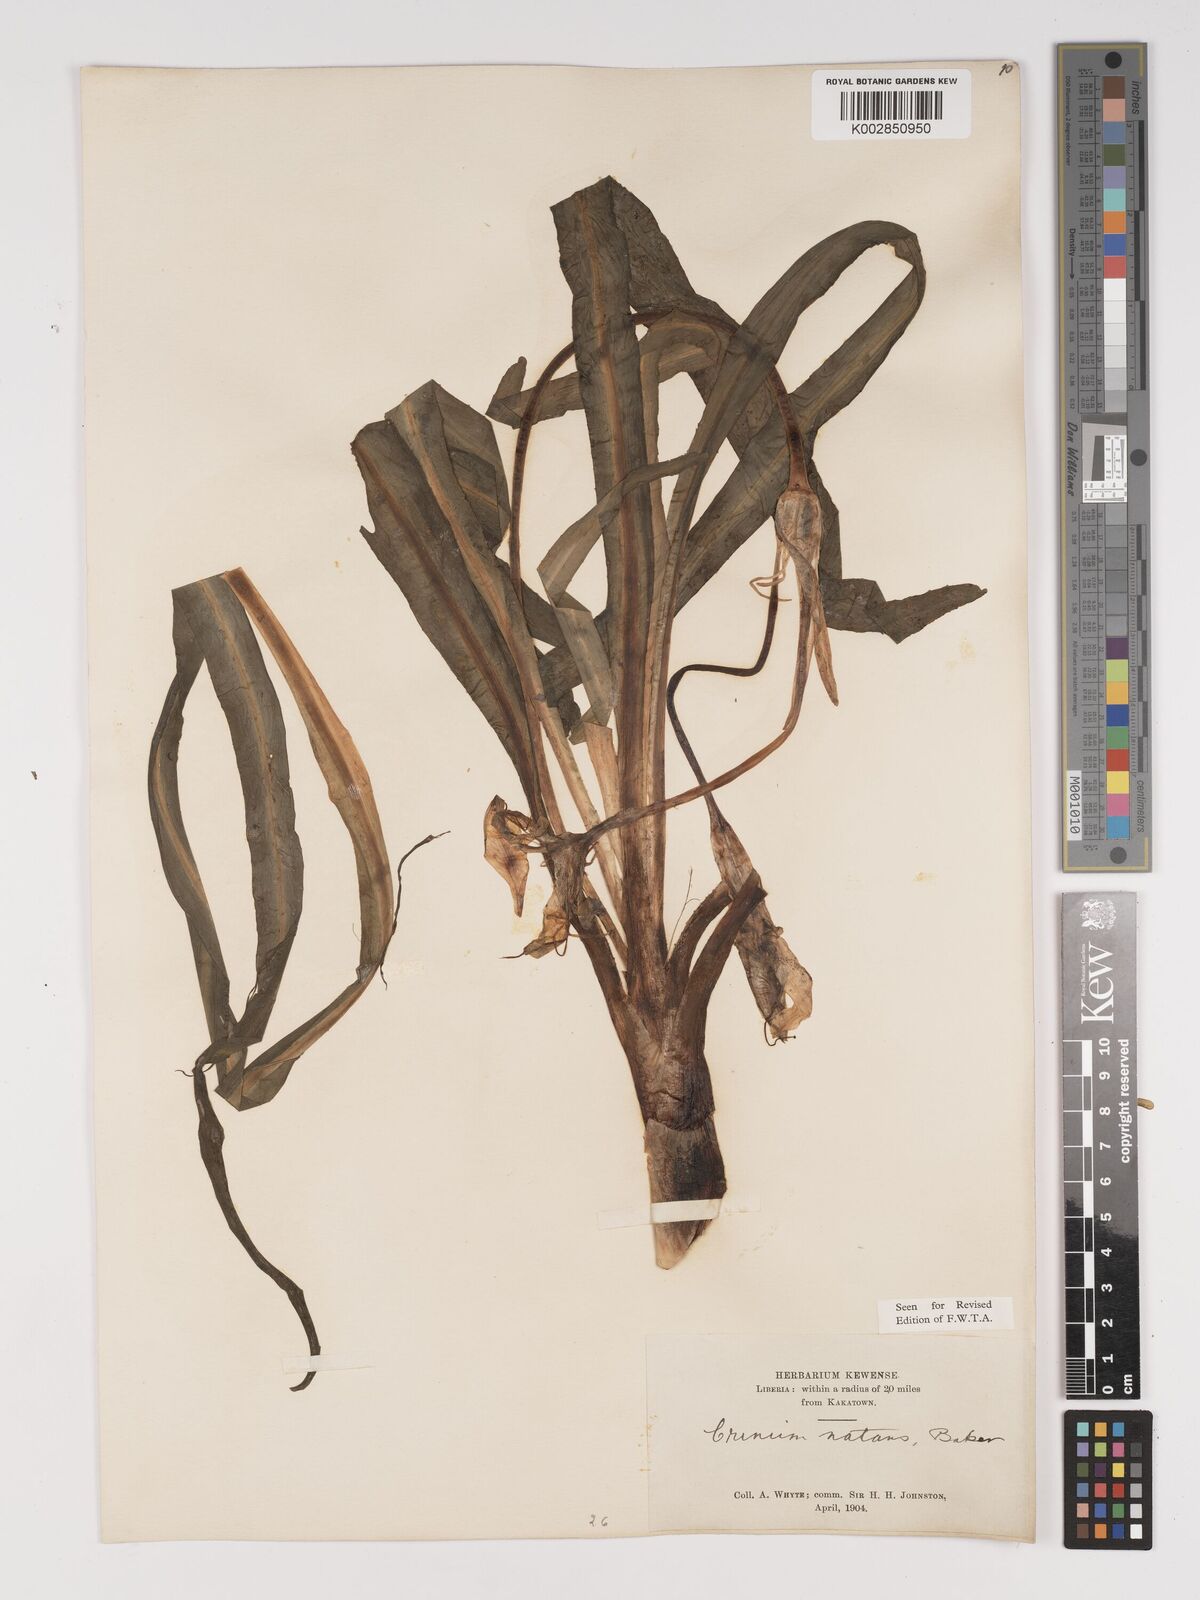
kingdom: Plantae
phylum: Tracheophyta
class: Liliopsida
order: Asparagales
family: Amaryllidaceae
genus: Crinum
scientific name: Crinum natans
